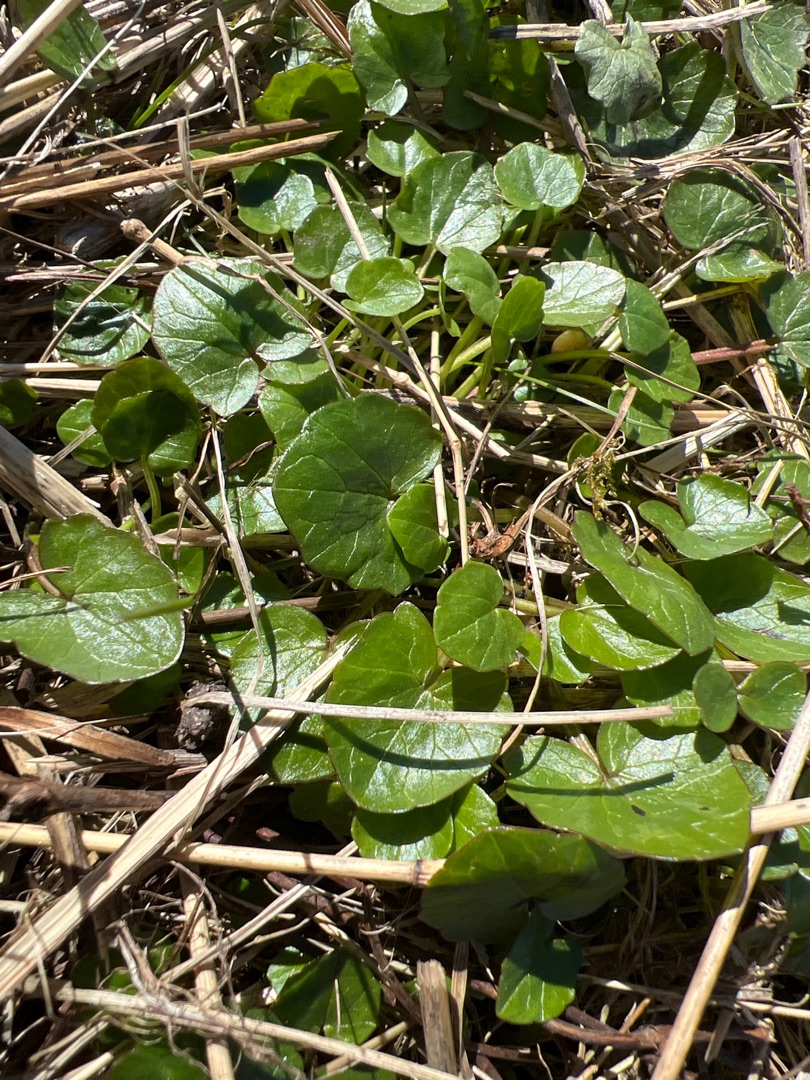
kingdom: Plantae
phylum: Tracheophyta
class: Magnoliopsida
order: Ranunculales
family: Ranunculaceae
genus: Ficaria
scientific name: Ficaria verna
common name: Almindelig vorterod
